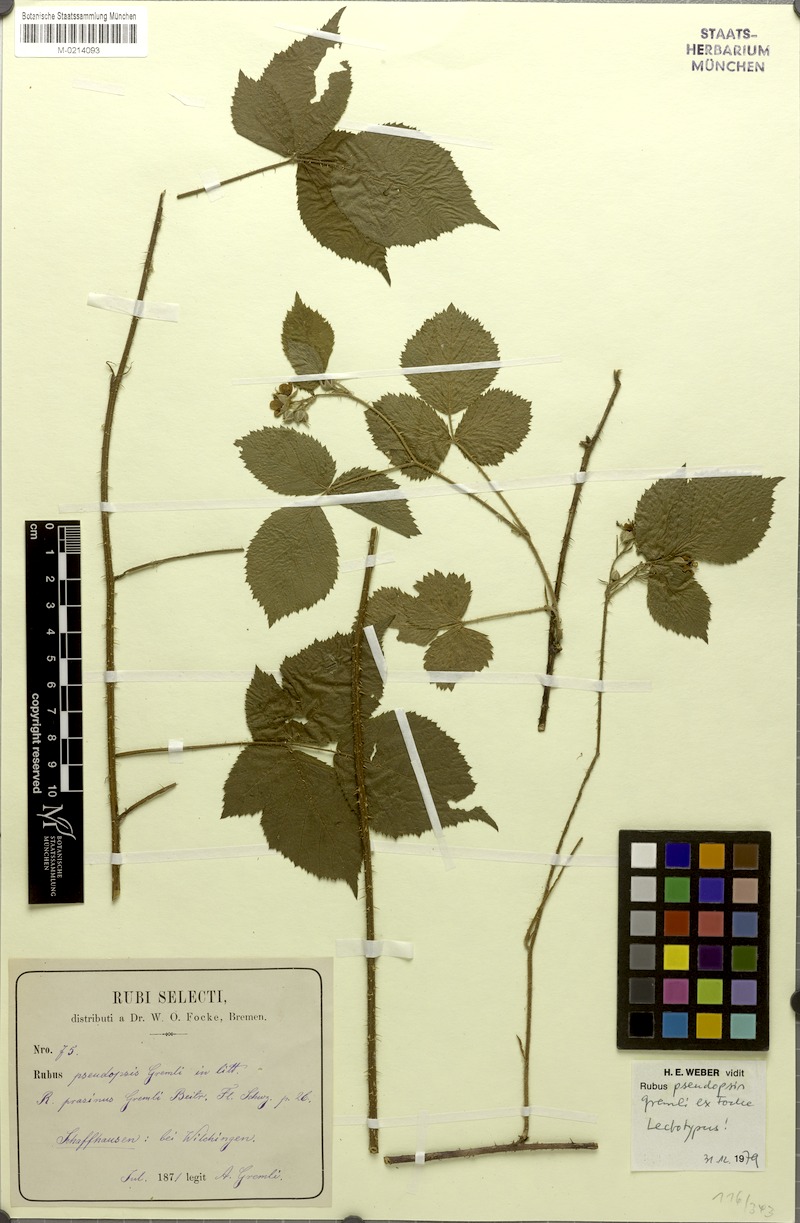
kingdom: Plantae
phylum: Tracheophyta
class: Magnoliopsida
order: Rosales
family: Rosaceae
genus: Rubus
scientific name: Rubus pseudopsis
